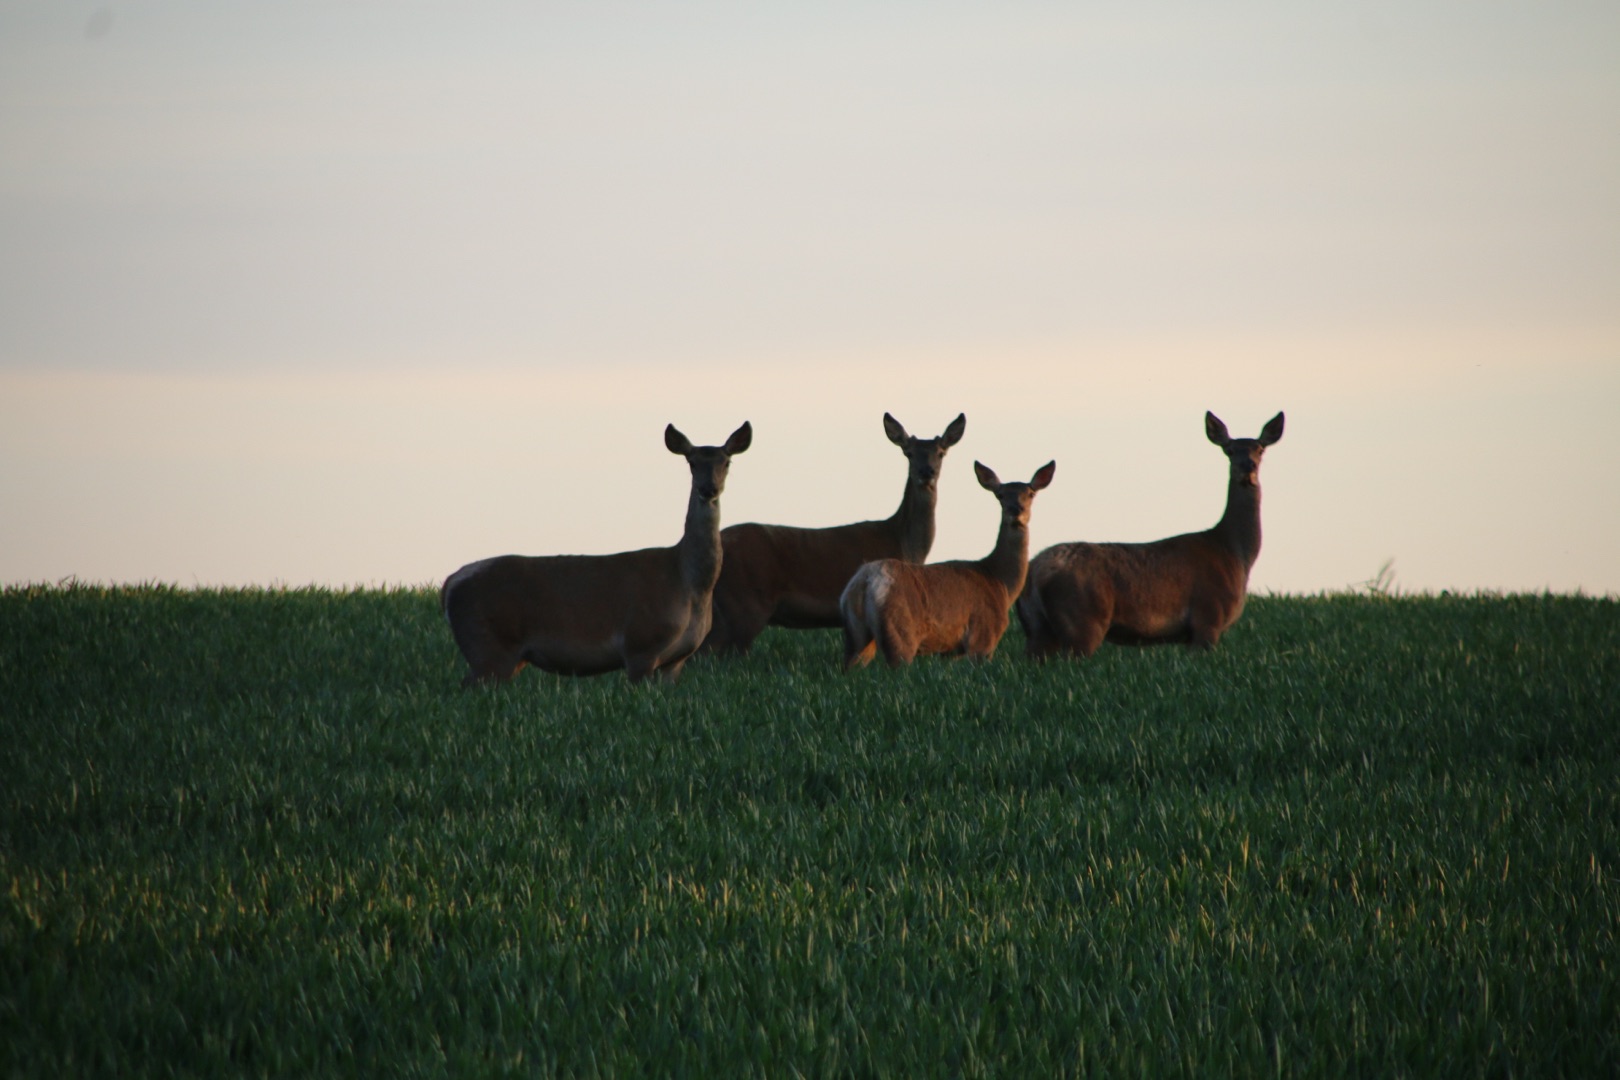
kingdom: Animalia
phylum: Chordata
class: Mammalia
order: Artiodactyla
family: Cervidae
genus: Cervus
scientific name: Cervus elaphus
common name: Krondyr
